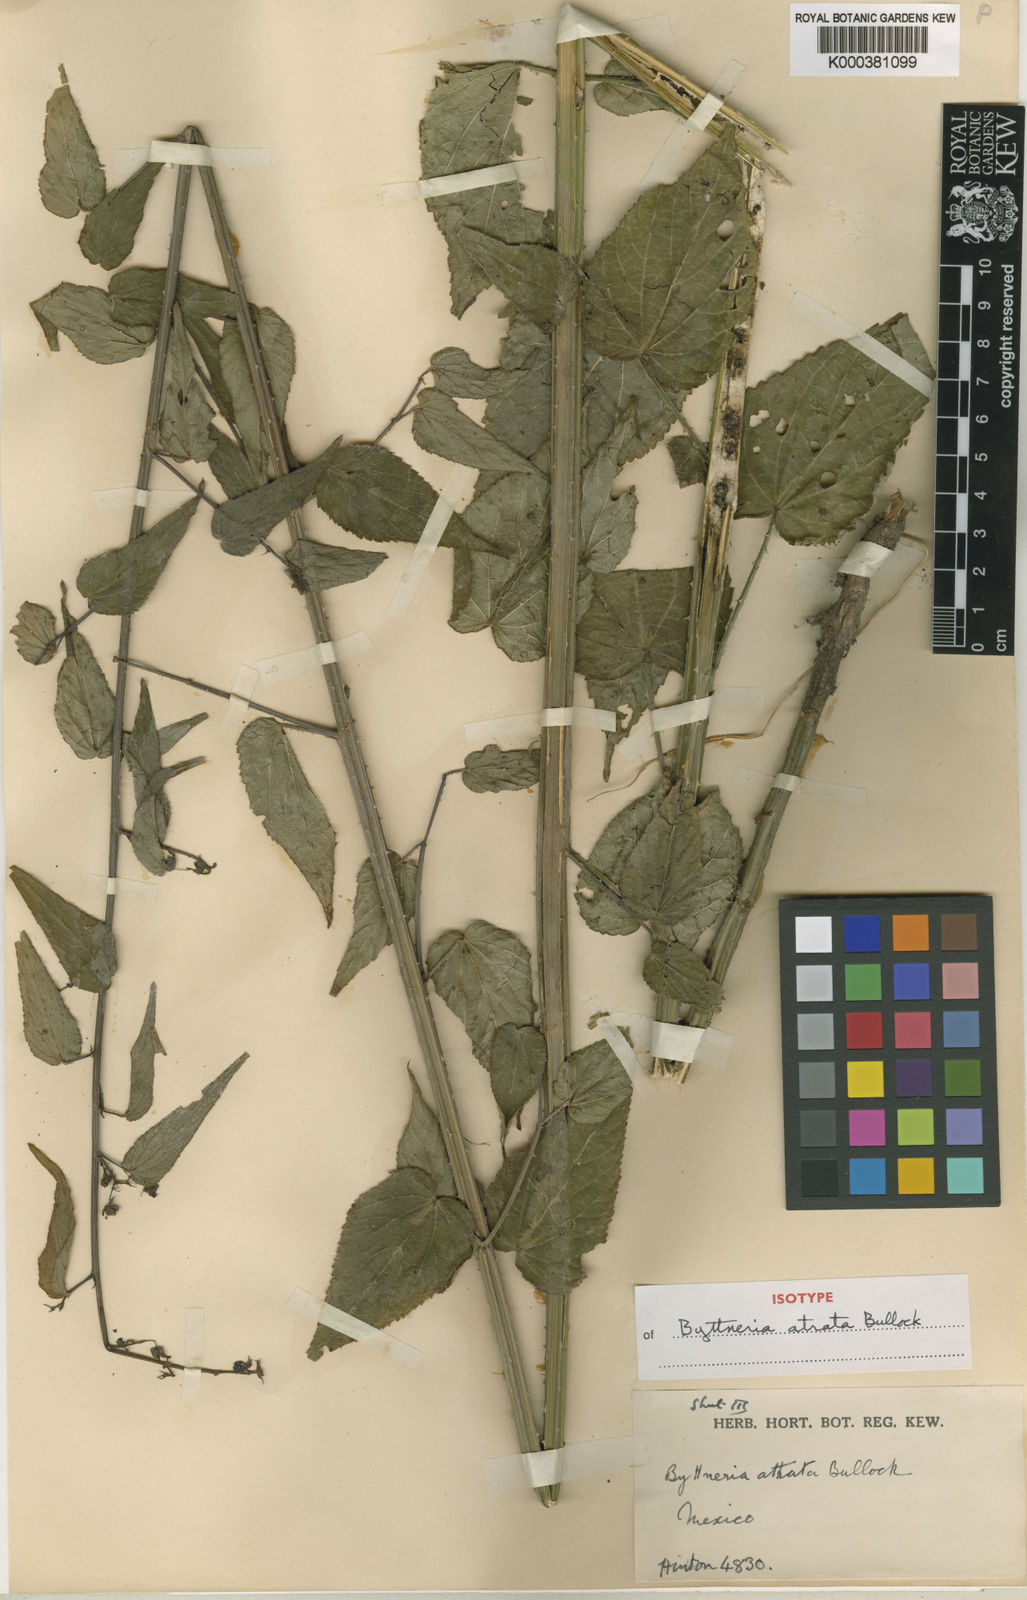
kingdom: Plantae
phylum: Tracheophyta
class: Magnoliopsida
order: Malvales
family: Malvaceae
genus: Byttneria
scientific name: Byttneria atrata
